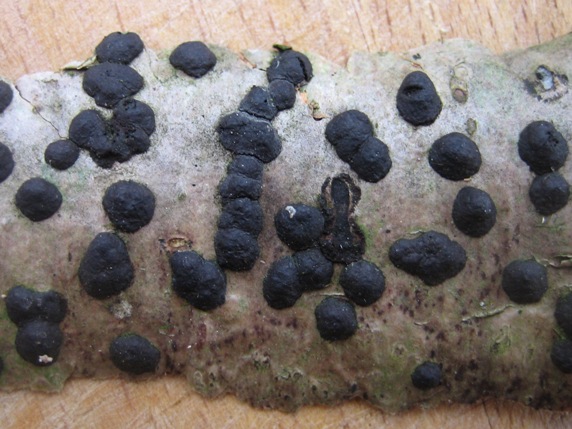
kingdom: Fungi
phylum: Ascomycota
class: Sordariomycetes
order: Xylariales
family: Hypoxylaceae
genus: Hypoxylon
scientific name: Hypoxylon fuscum
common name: kegleformet kulbær
